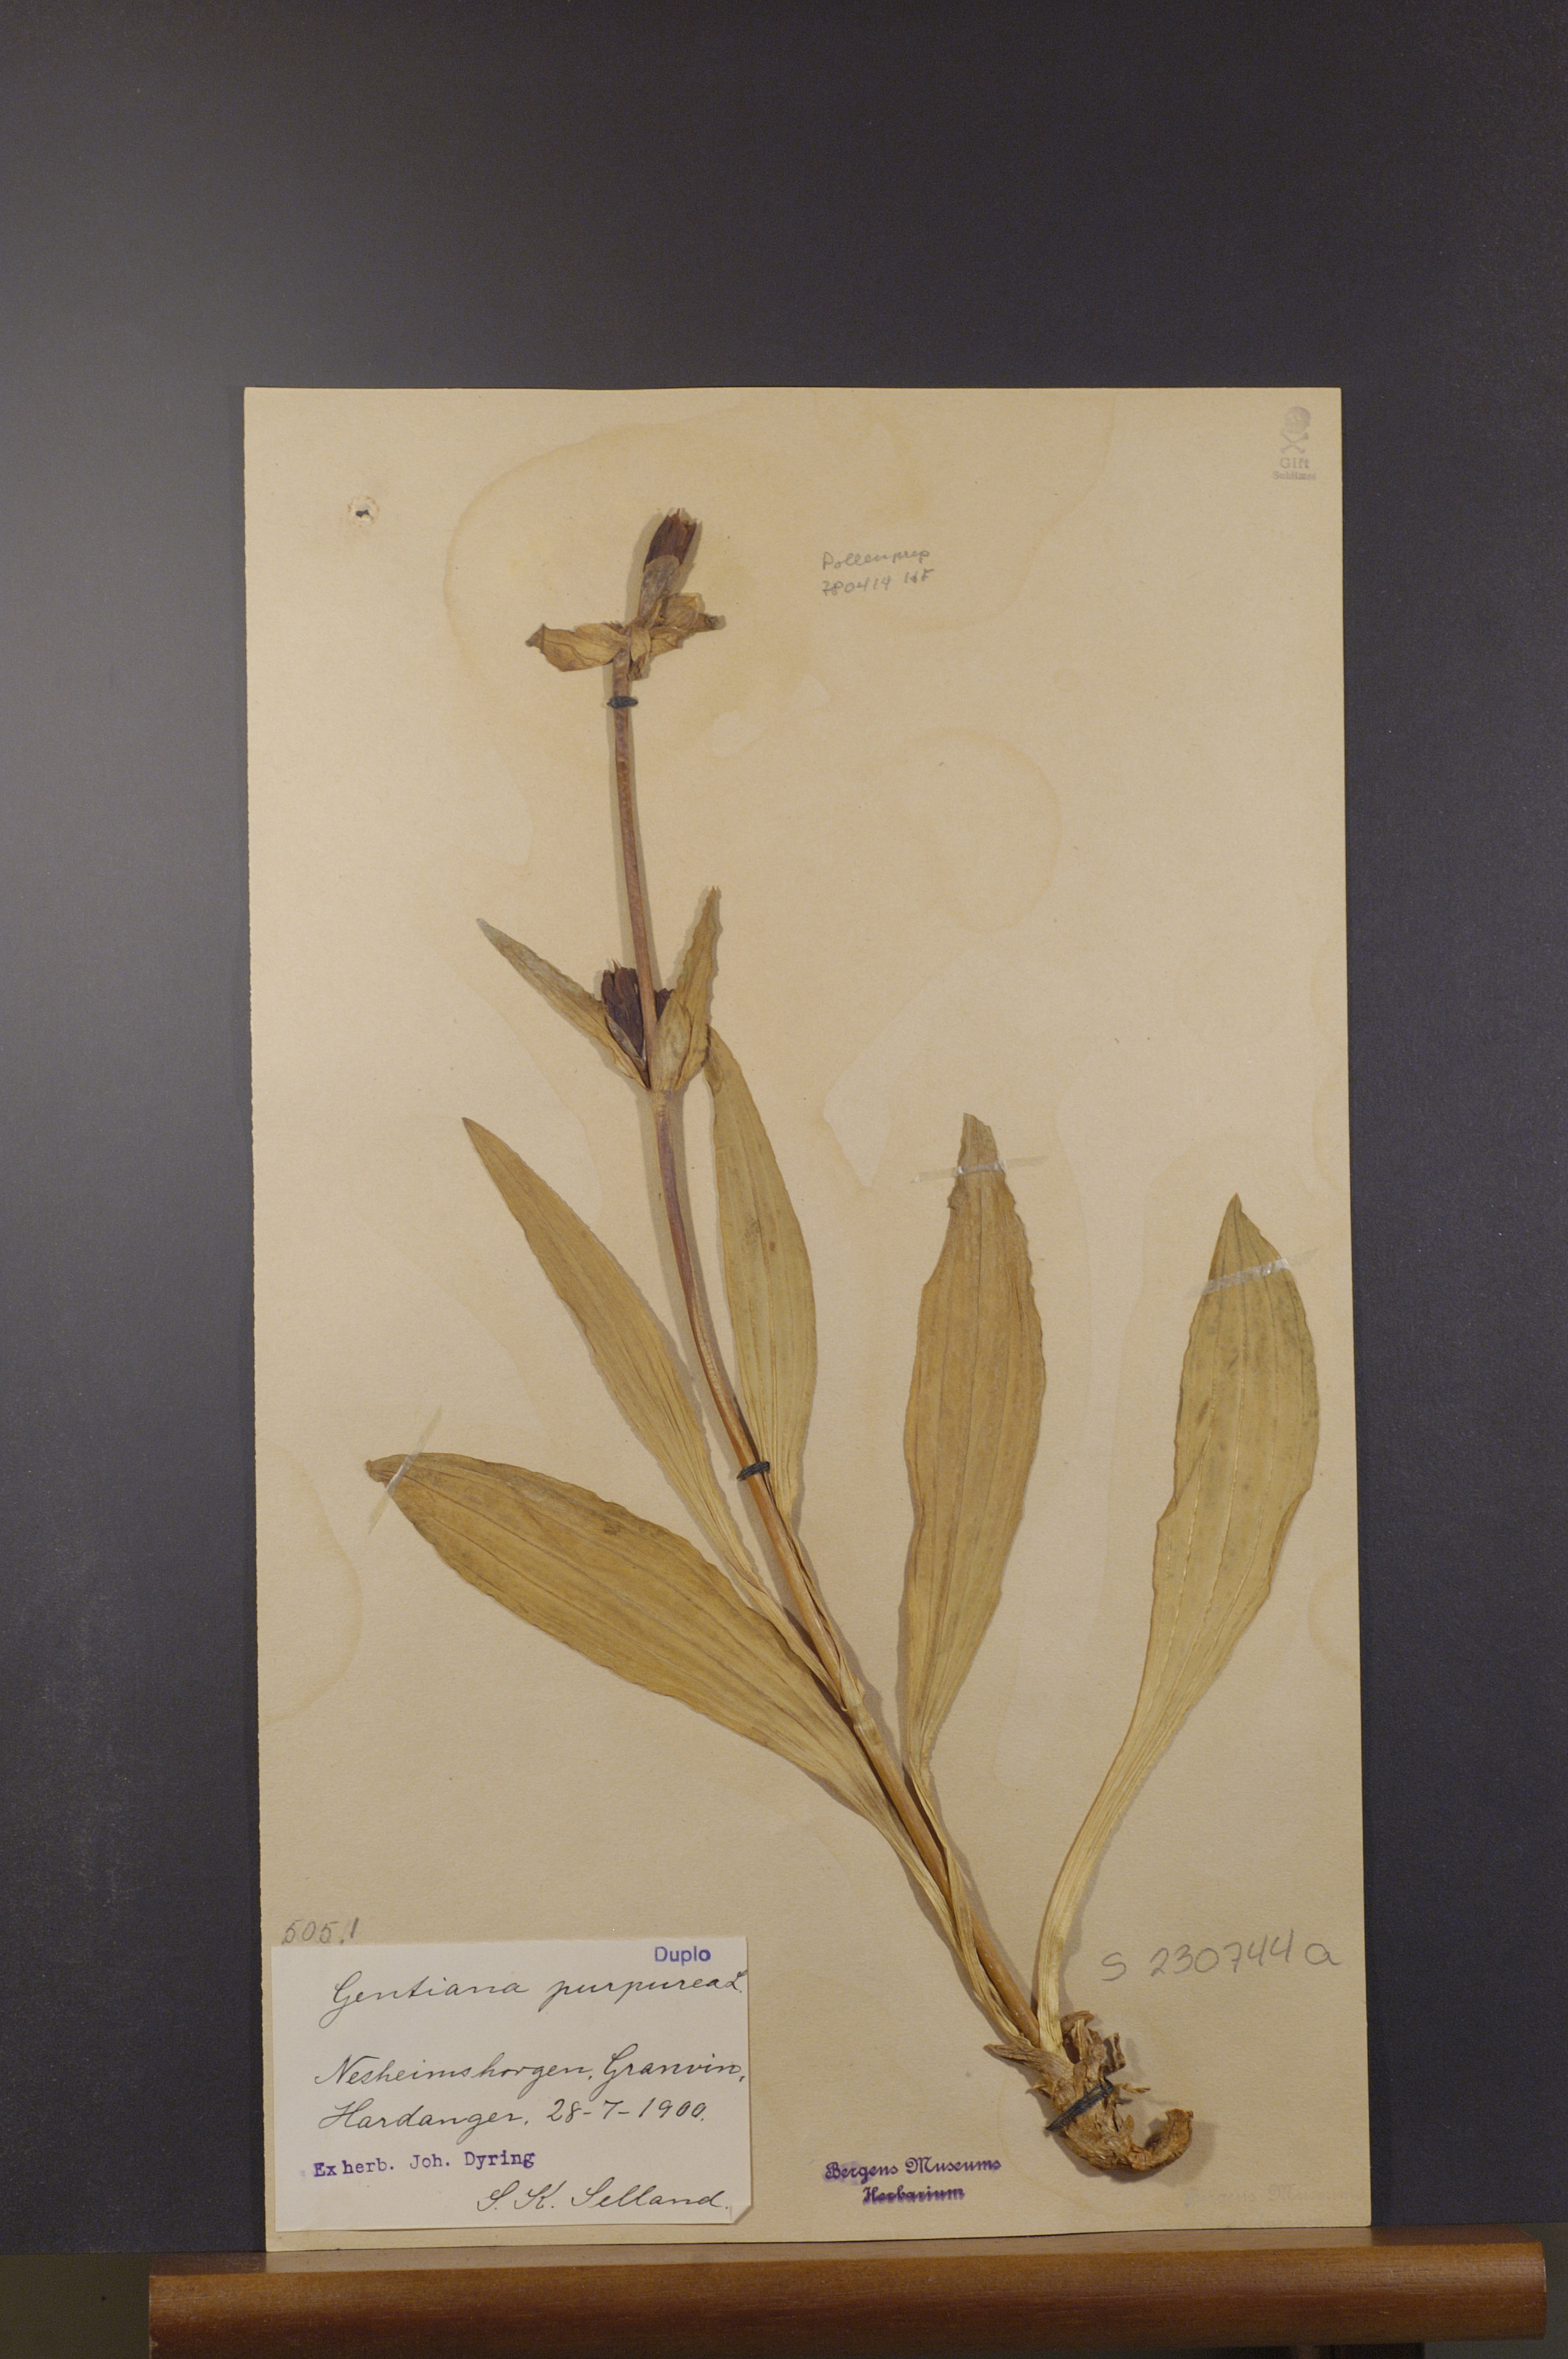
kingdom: Plantae
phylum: Tracheophyta
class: Magnoliopsida
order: Gentianales
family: Gentianaceae
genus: Gentiana
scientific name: Gentiana purpurea
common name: Purple gentian
